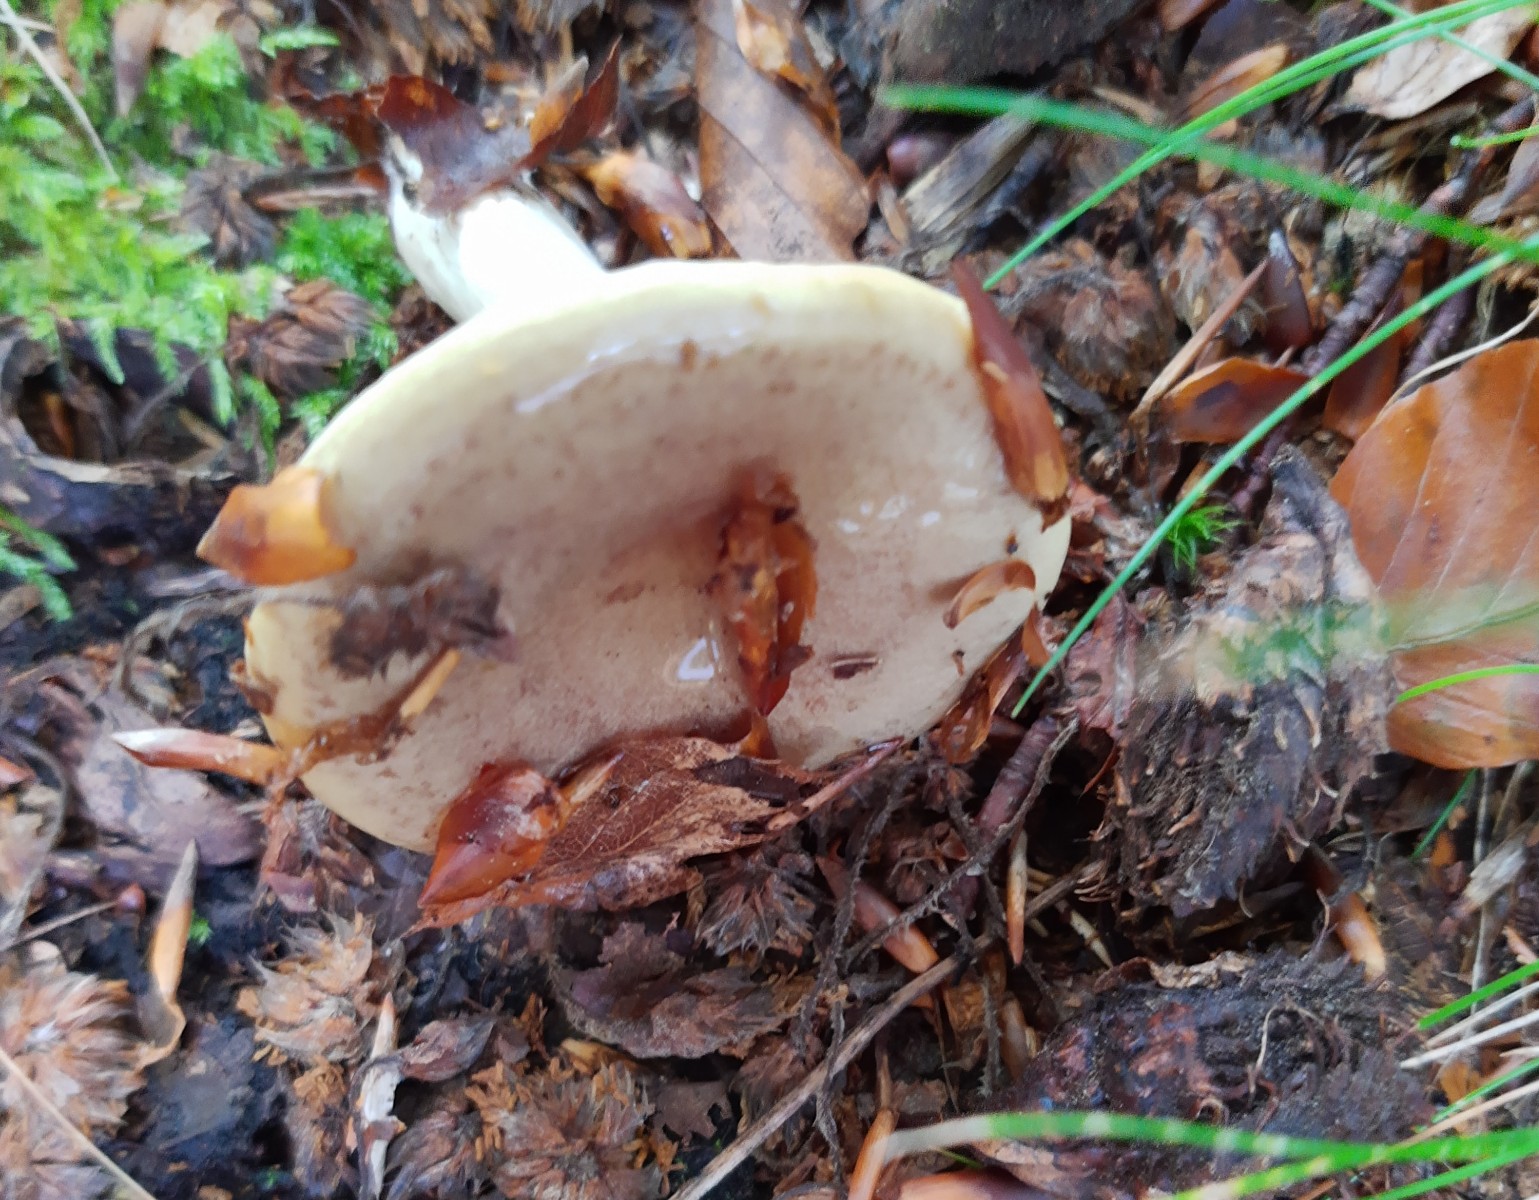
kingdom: Fungi
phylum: Basidiomycota
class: Agaricomycetes
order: Russulales
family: Russulaceae
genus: Lactarius
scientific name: Lactarius blennius
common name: dråbeplettet mælkehat
